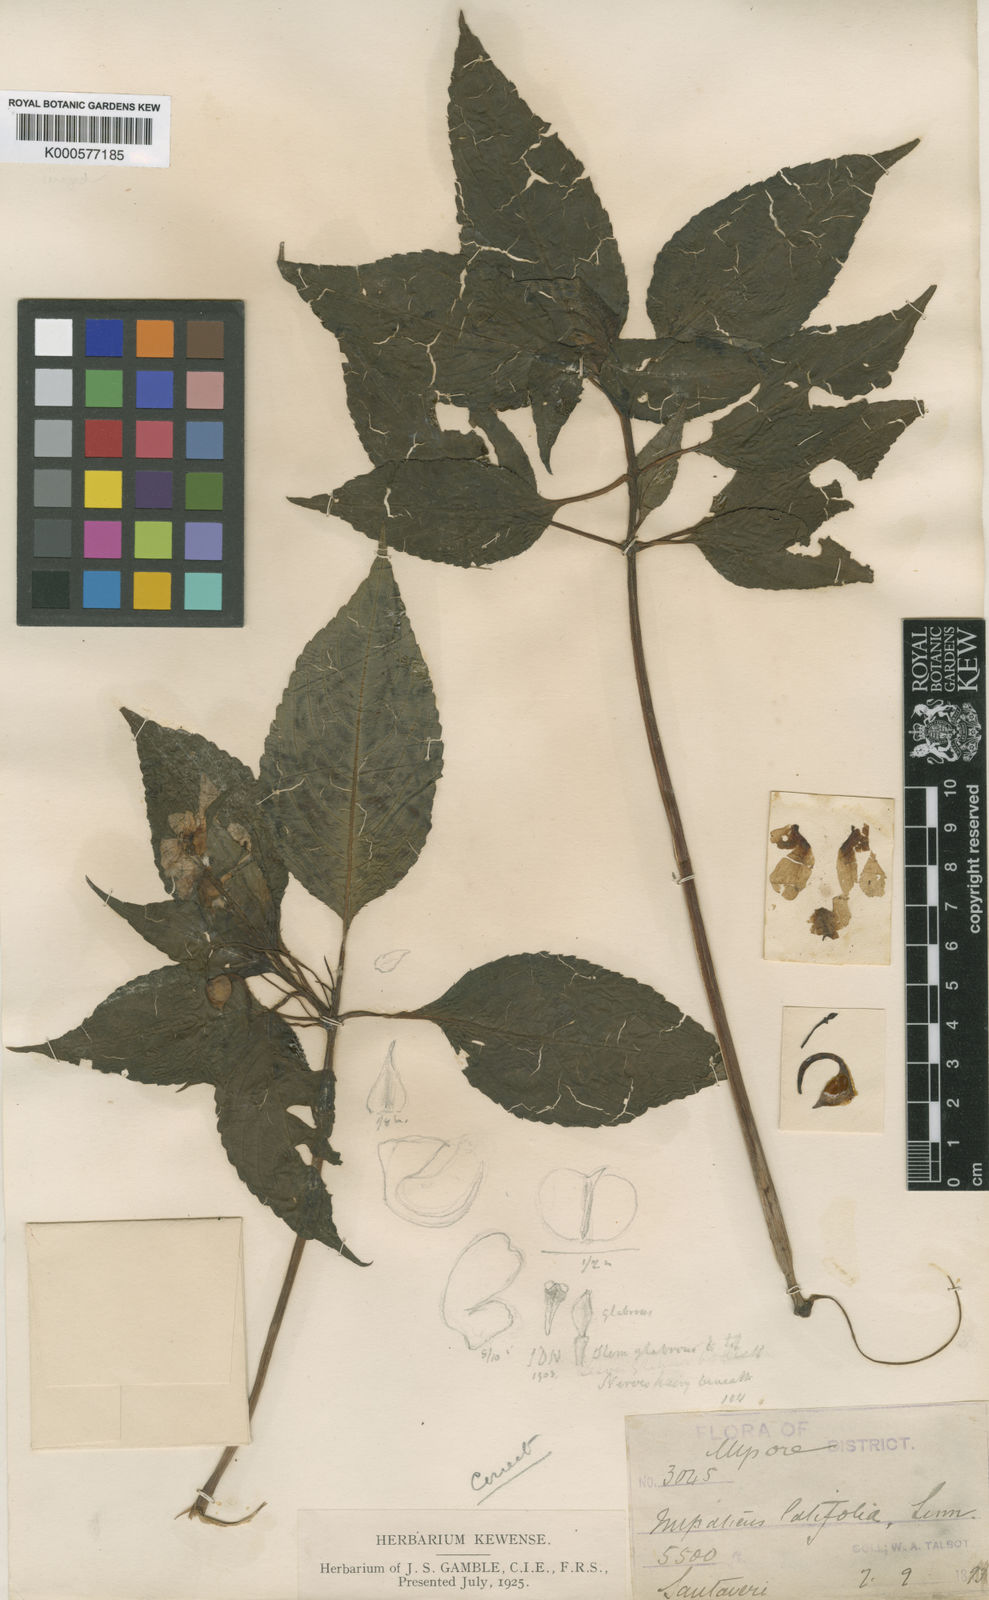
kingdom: Plantae
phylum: Tracheophyta
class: Magnoliopsida
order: Ericales
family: Balsaminaceae
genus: Impatiens
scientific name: Impatiens latifolia
